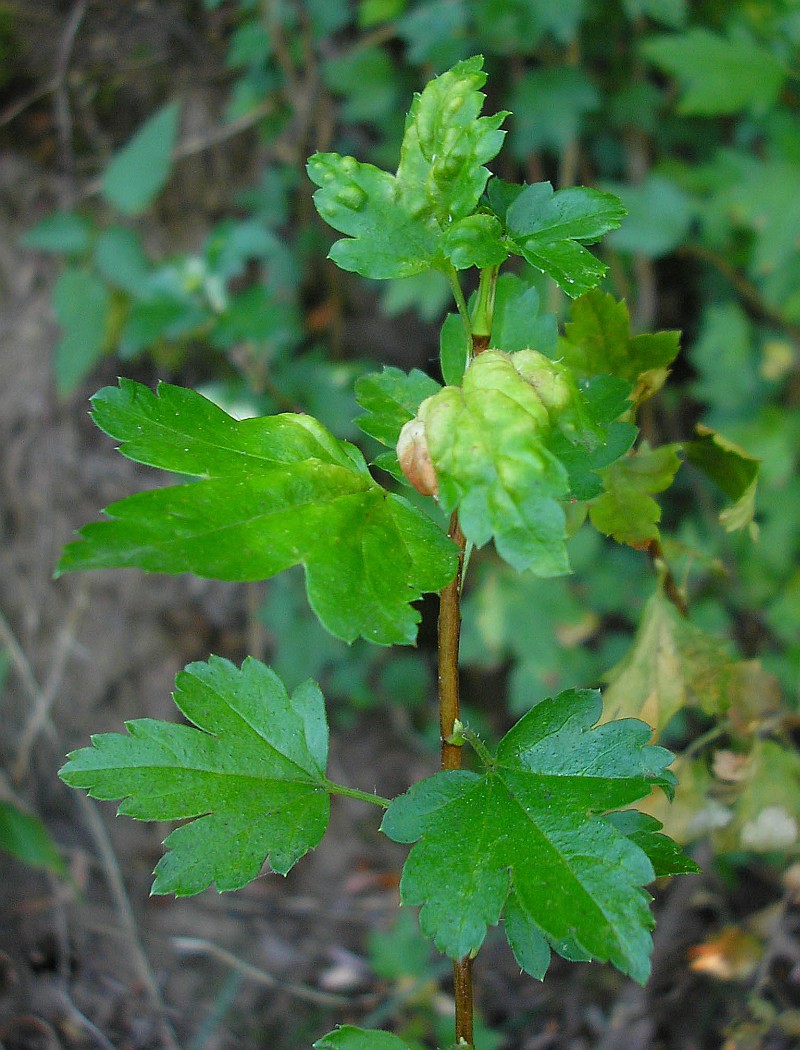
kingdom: Animalia
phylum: Arthropoda
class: Insecta
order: Hemiptera
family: Aphididae
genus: Cryptomyzus
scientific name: Cryptomyzus korschelti
